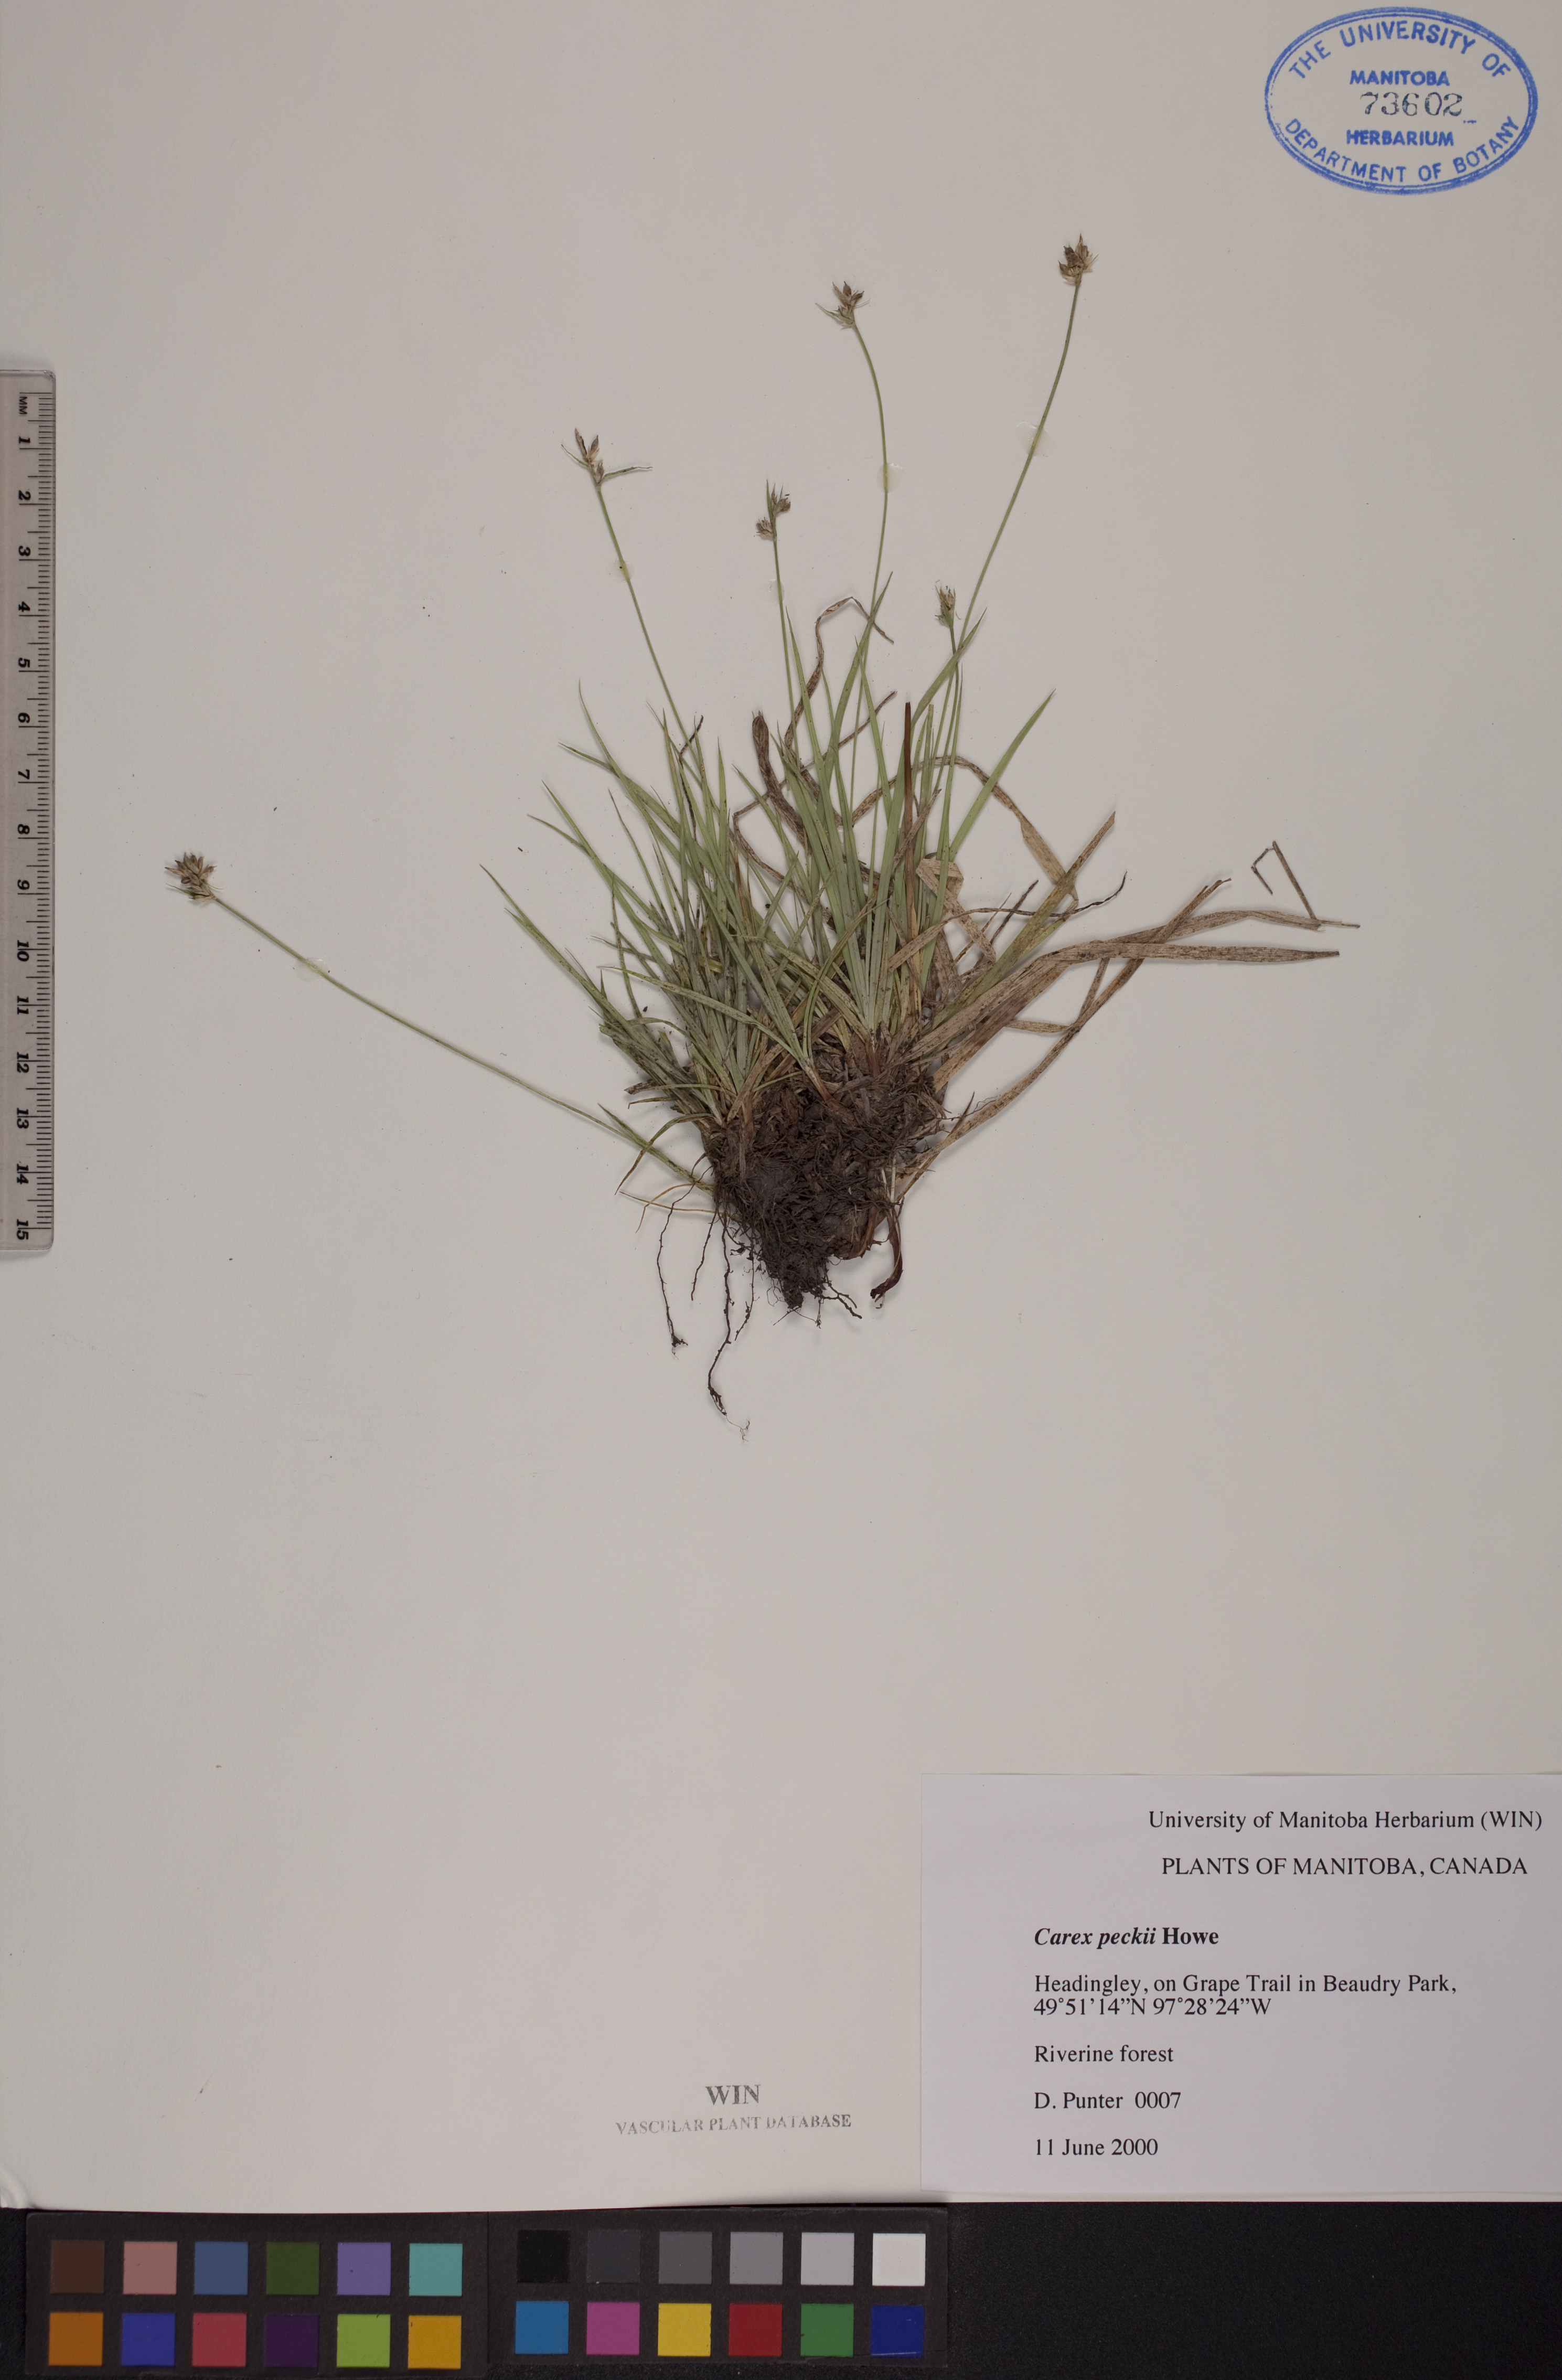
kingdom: Plantae
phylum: Tracheophyta
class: Liliopsida
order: Poales
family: Cyperaceae
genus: Carex
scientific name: Carex peckii
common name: Peck's oak sedge
